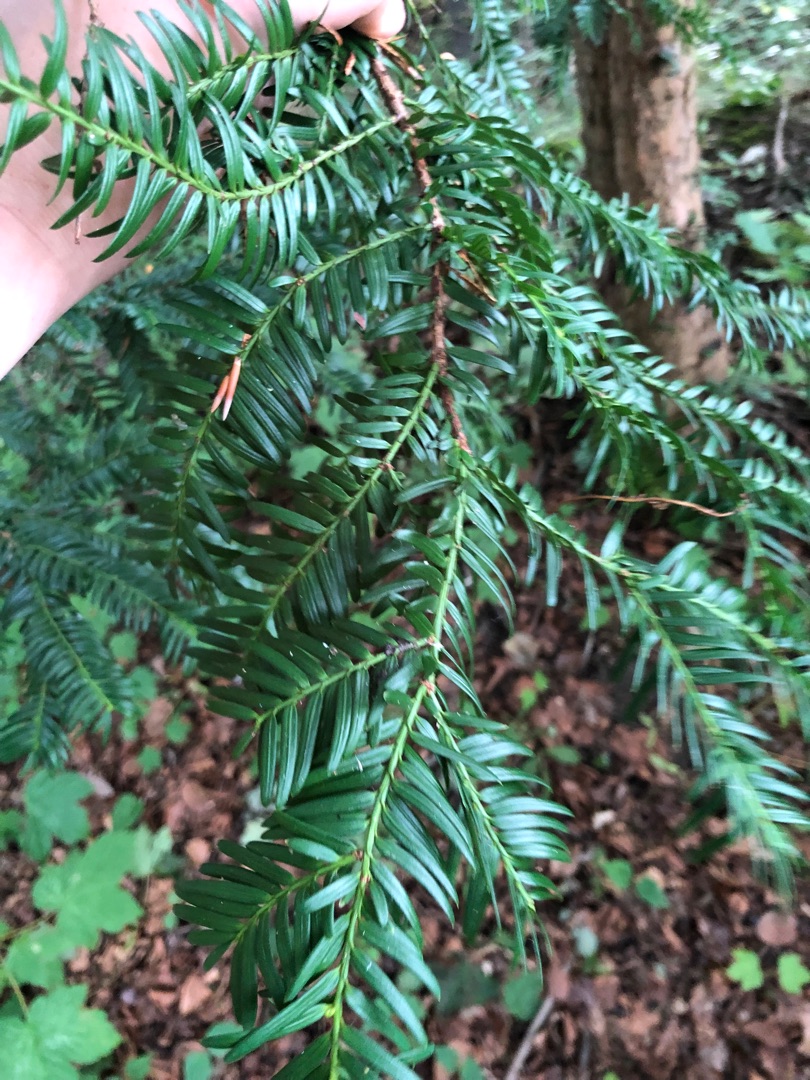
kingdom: Plantae
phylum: Tracheophyta
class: Pinopsida
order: Pinales
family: Taxaceae
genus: Taxus
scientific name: Taxus baccata
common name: Almindelig taks
